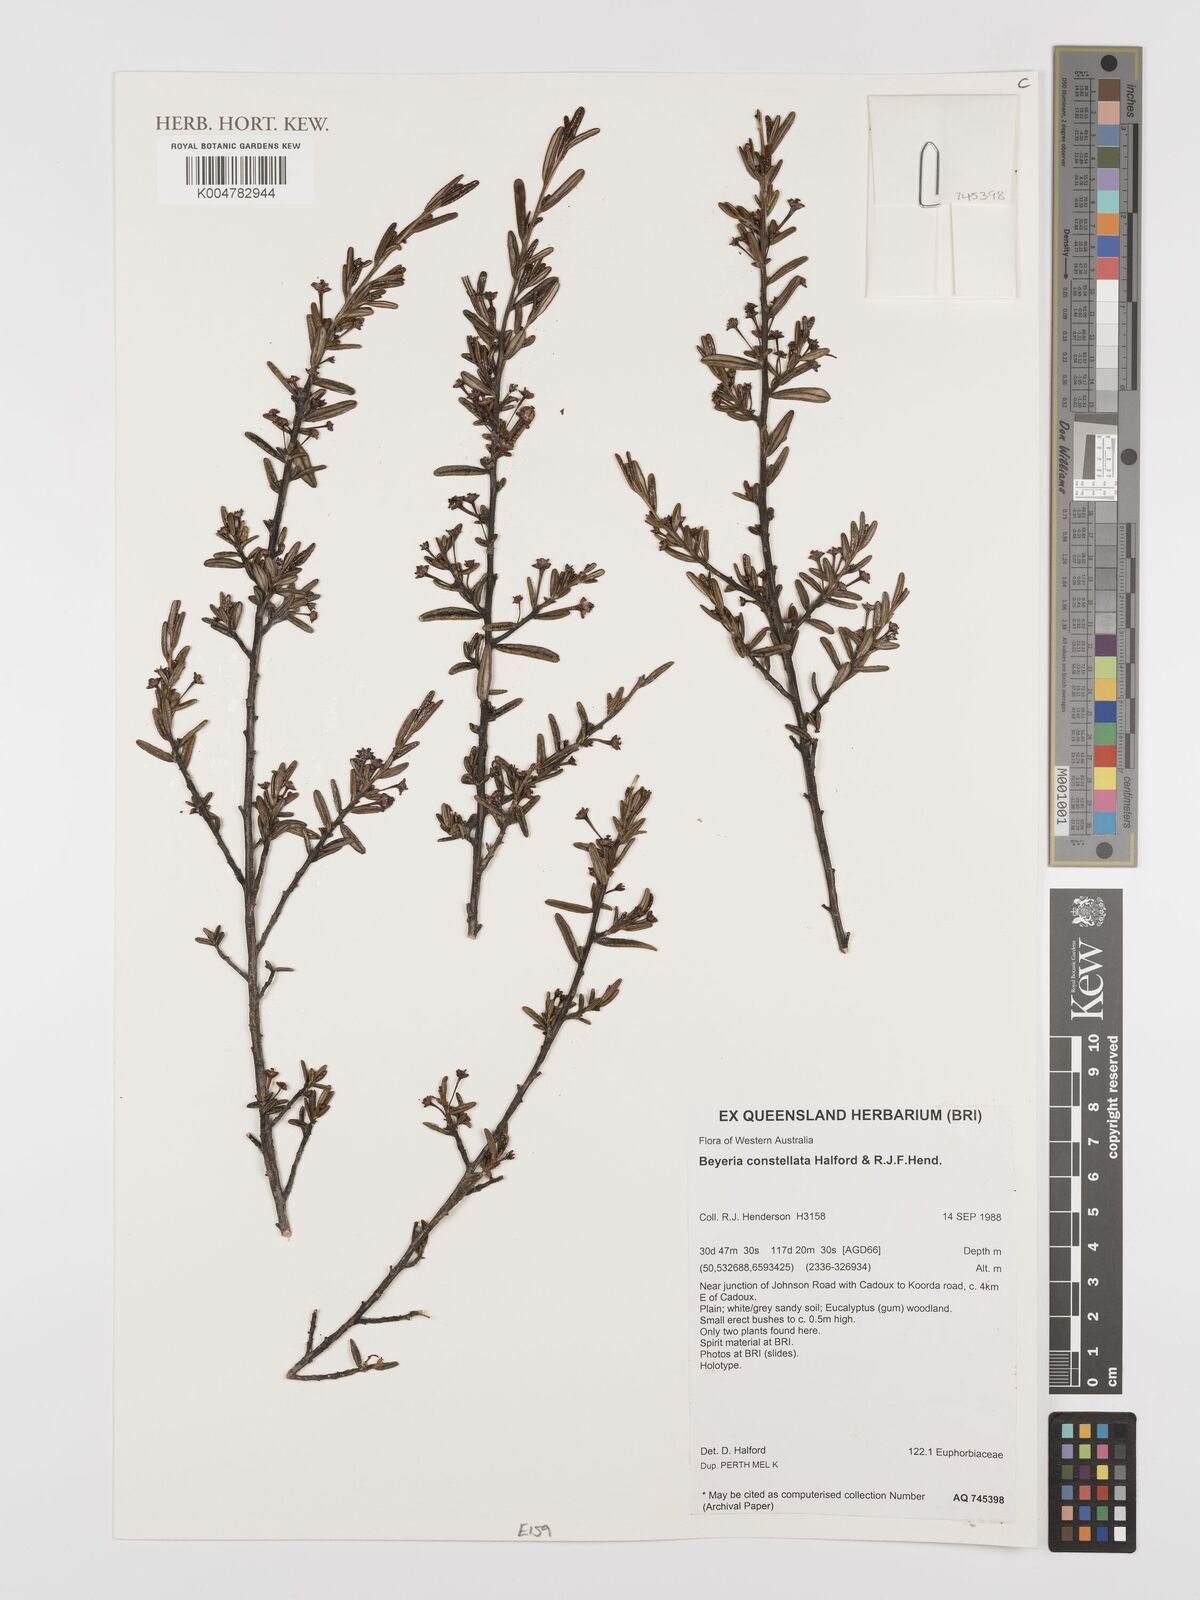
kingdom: Plantae
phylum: Tracheophyta
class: Magnoliopsida
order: Malpighiales
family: Euphorbiaceae
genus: Beyeria
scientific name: Beyeria constellata
